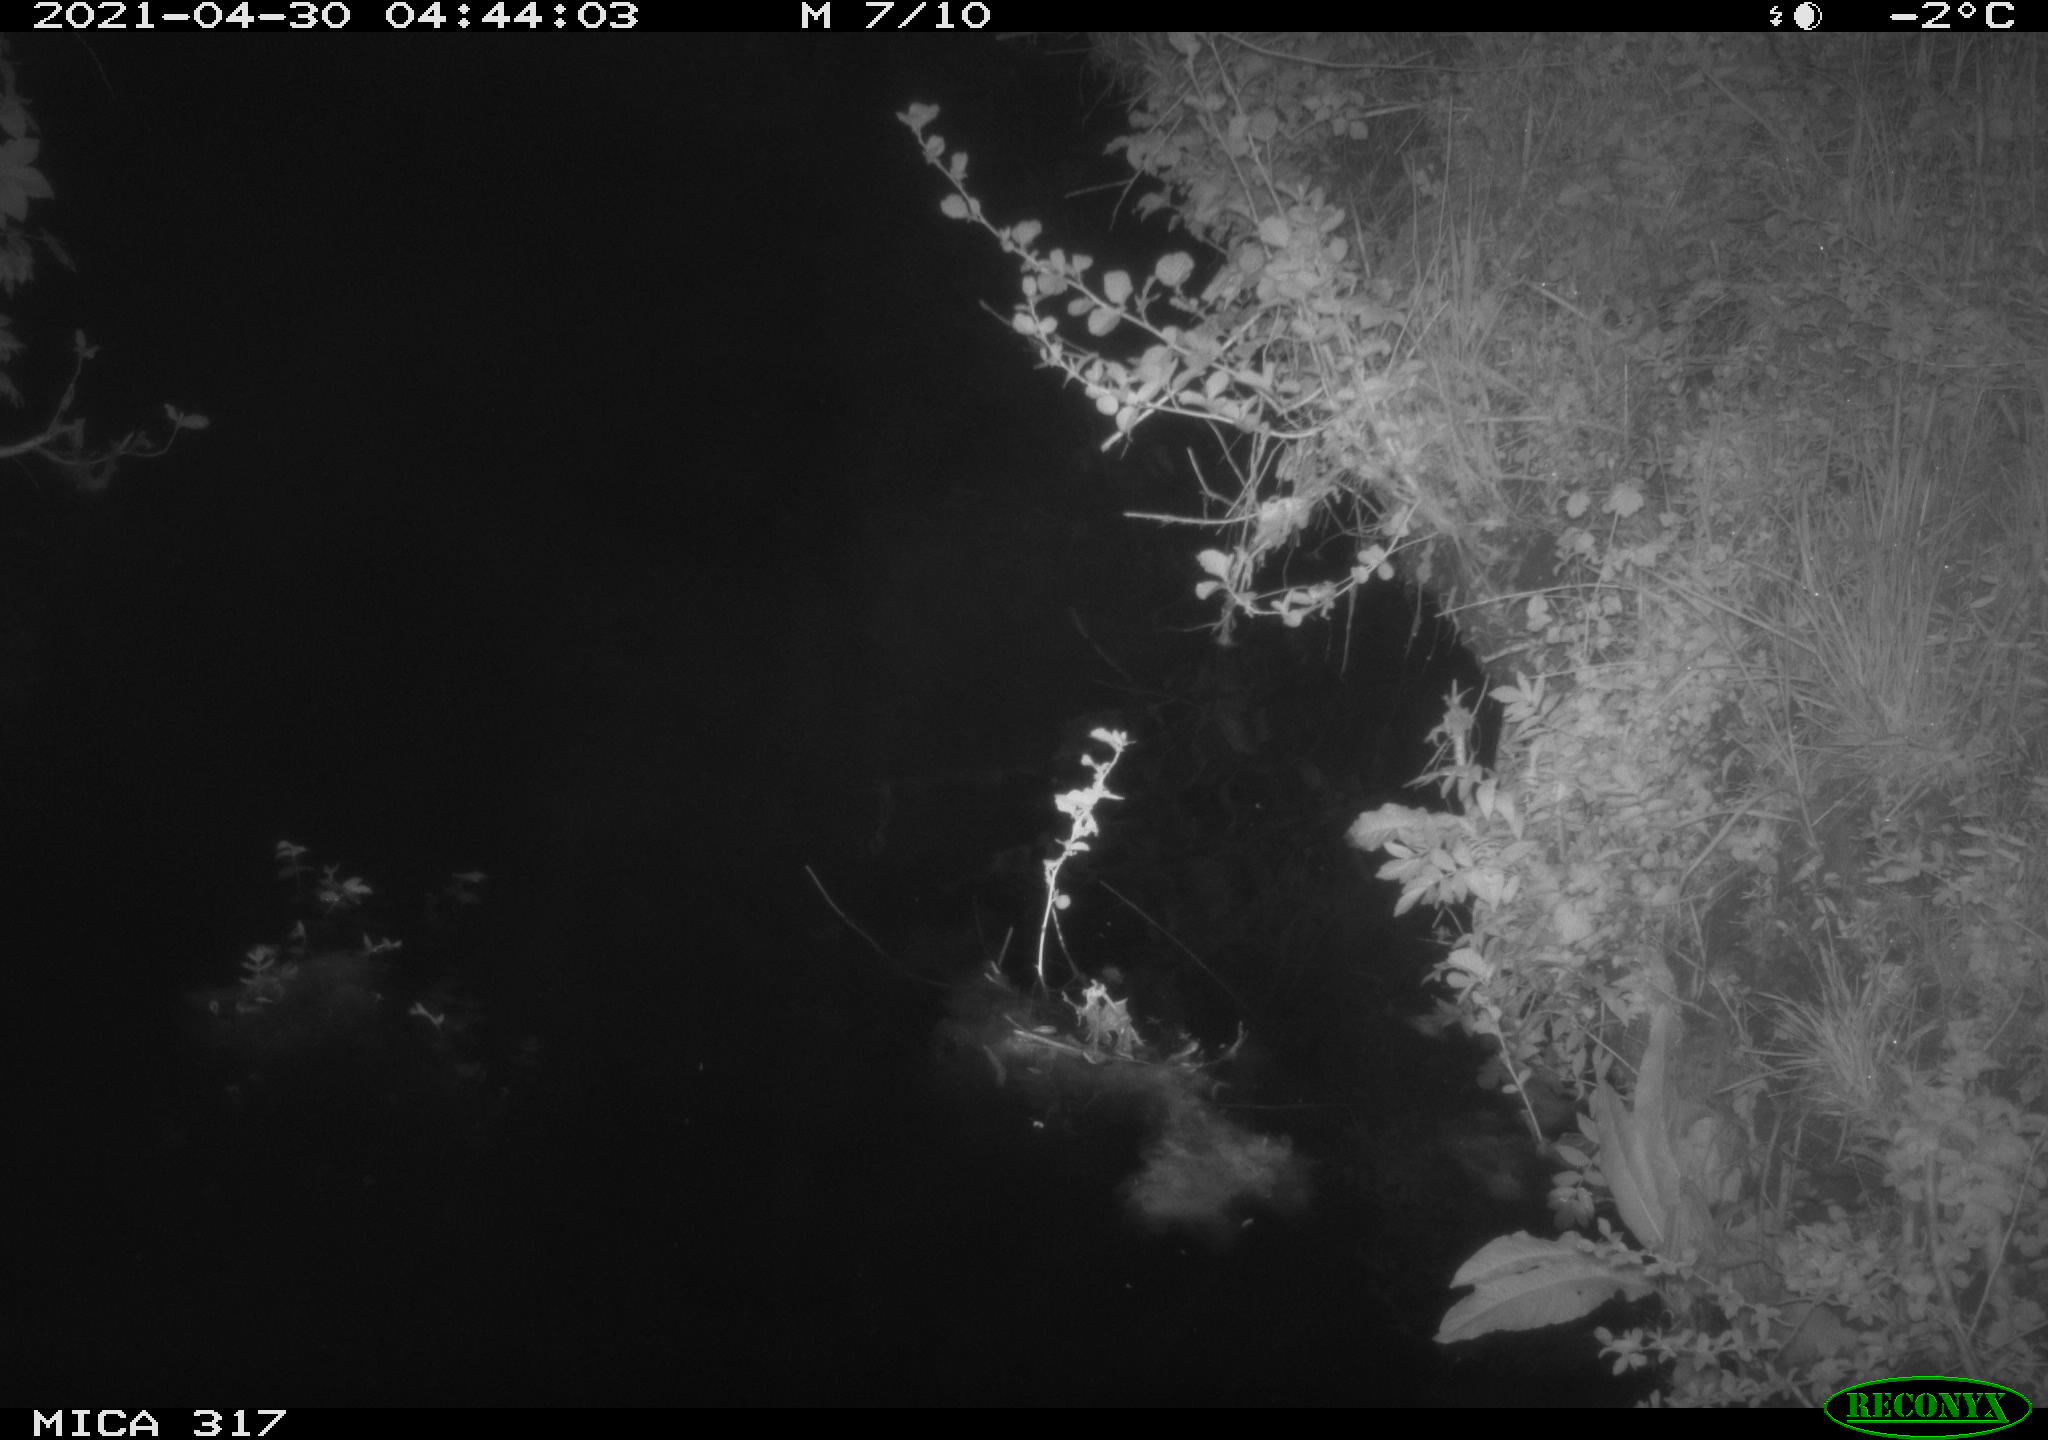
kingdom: Animalia
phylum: Chordata
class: Aves
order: Anseriformes
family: Anatidae
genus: Anas
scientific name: Anas
